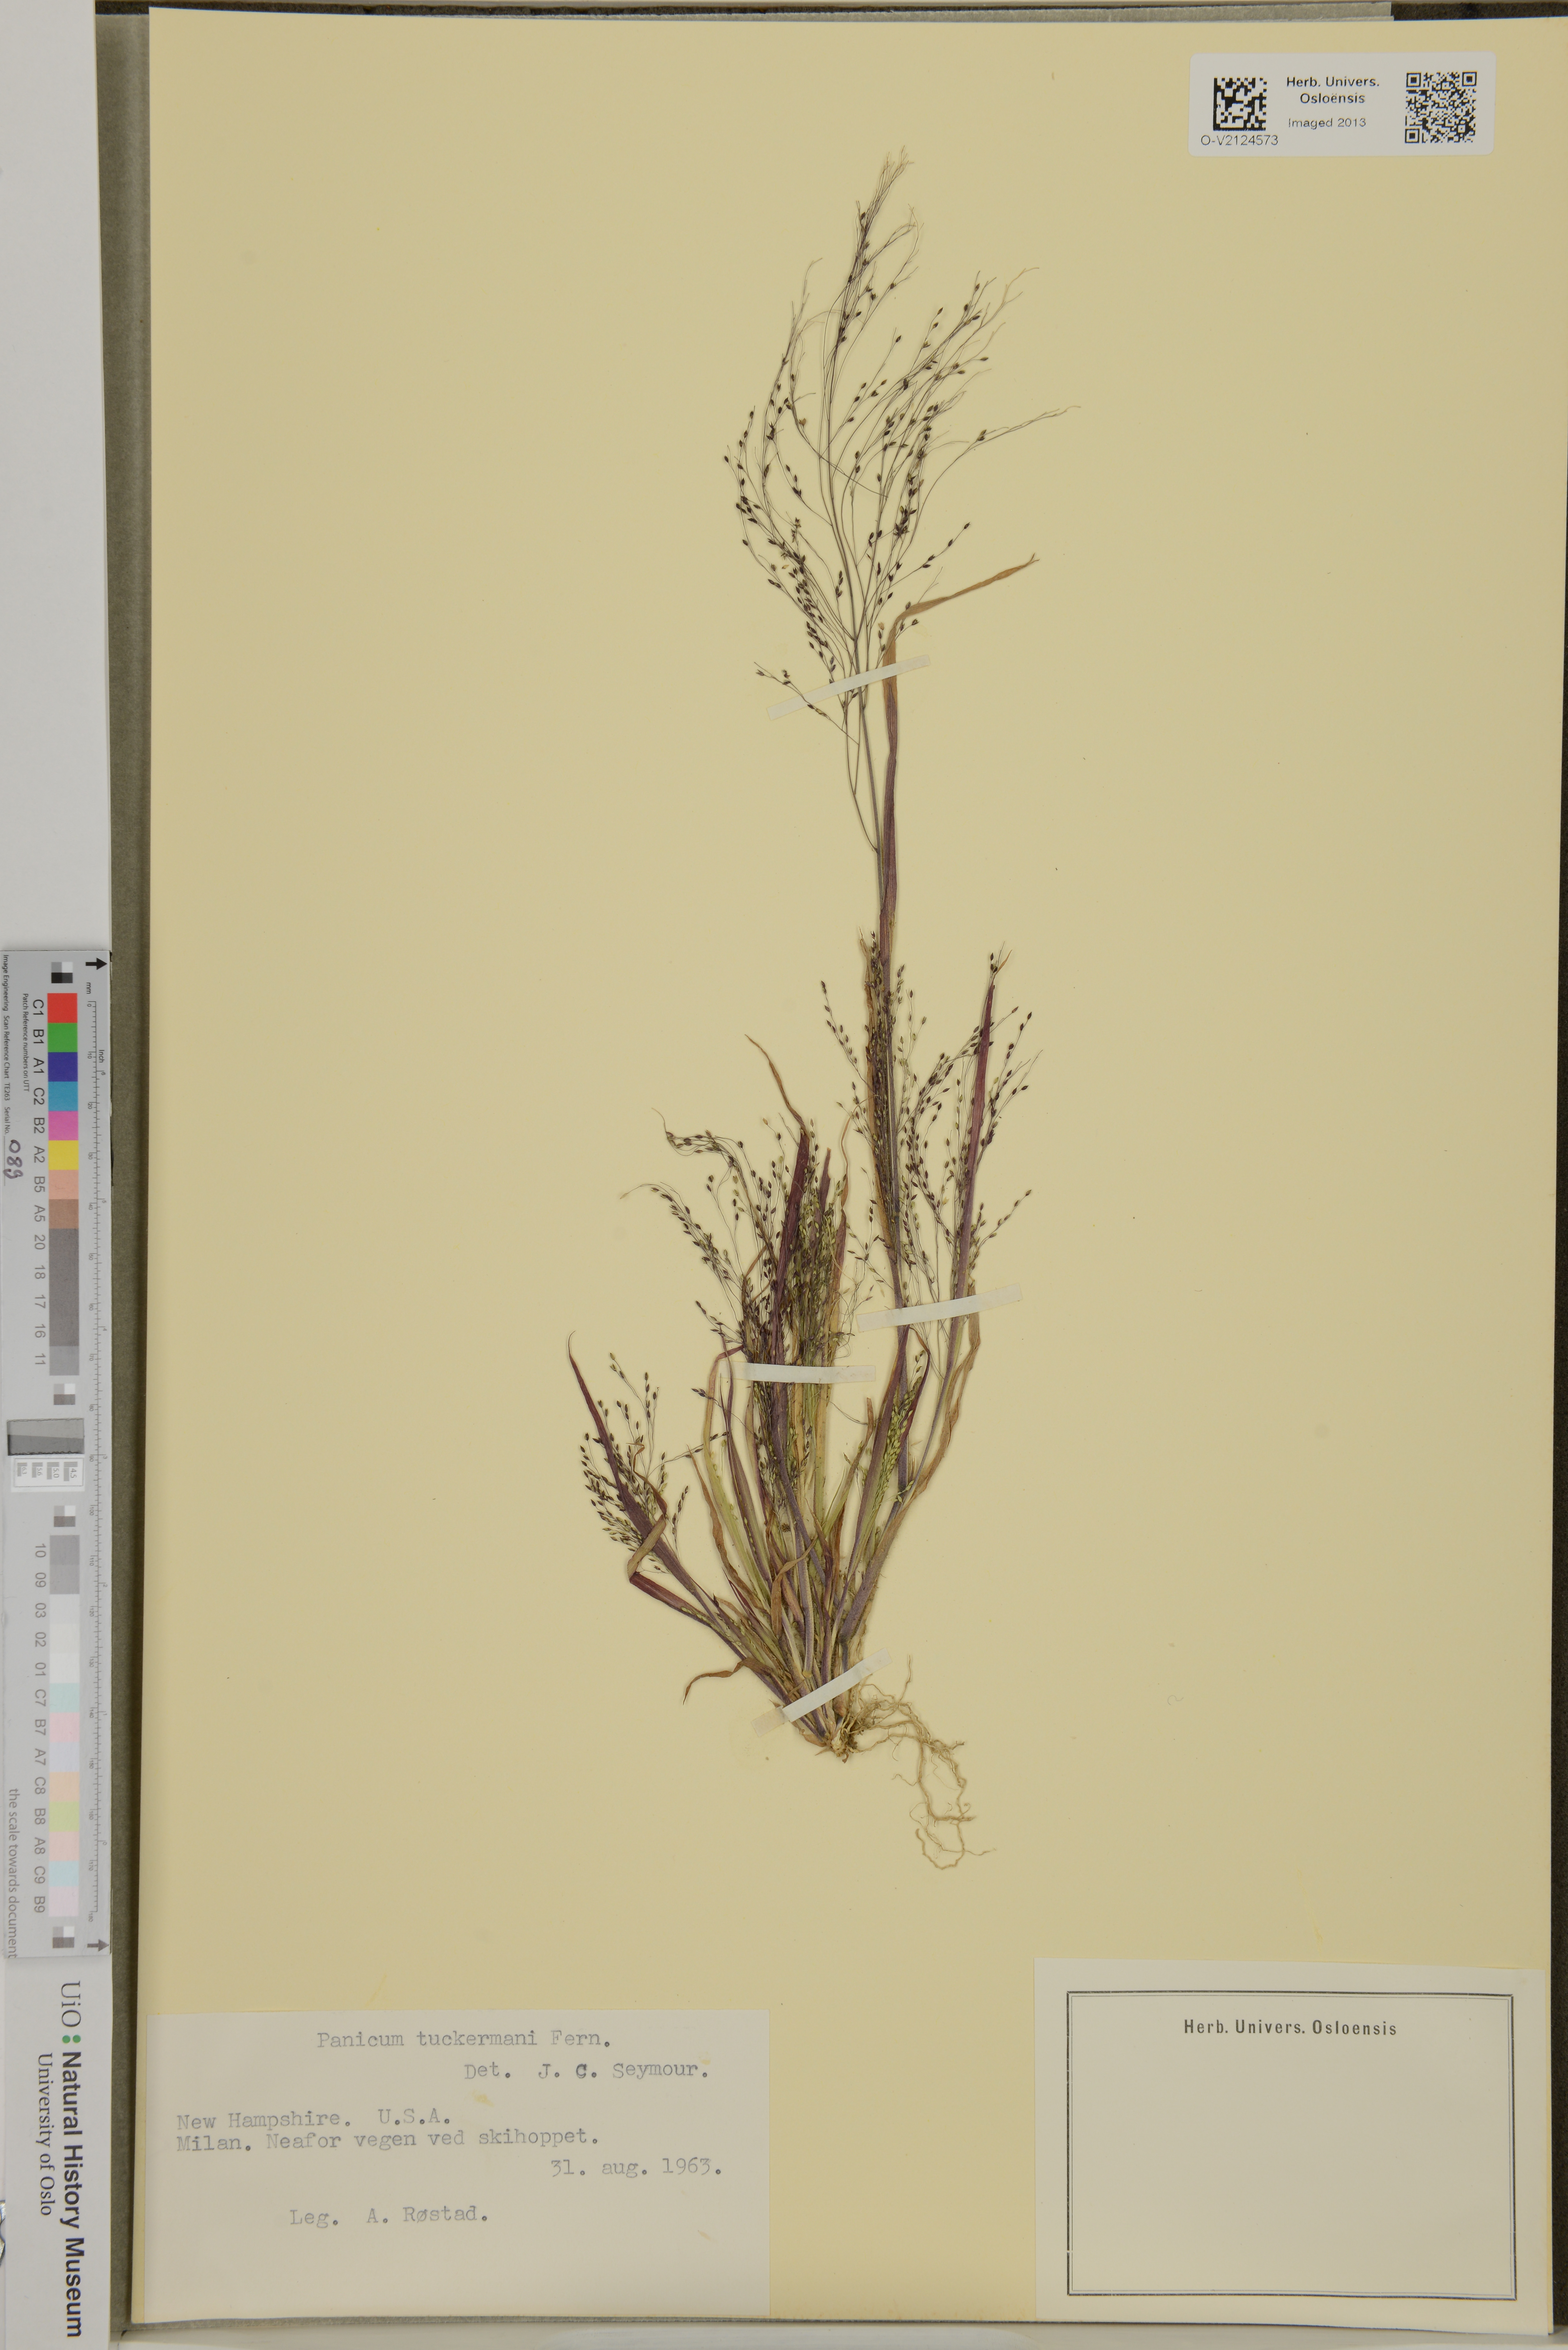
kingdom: Plantae
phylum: Tracheophyta
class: Liliopsida
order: Poales
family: Poaceae
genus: Panicum
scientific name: Panicum philadelphicum
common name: Philadelphia witchgrass
